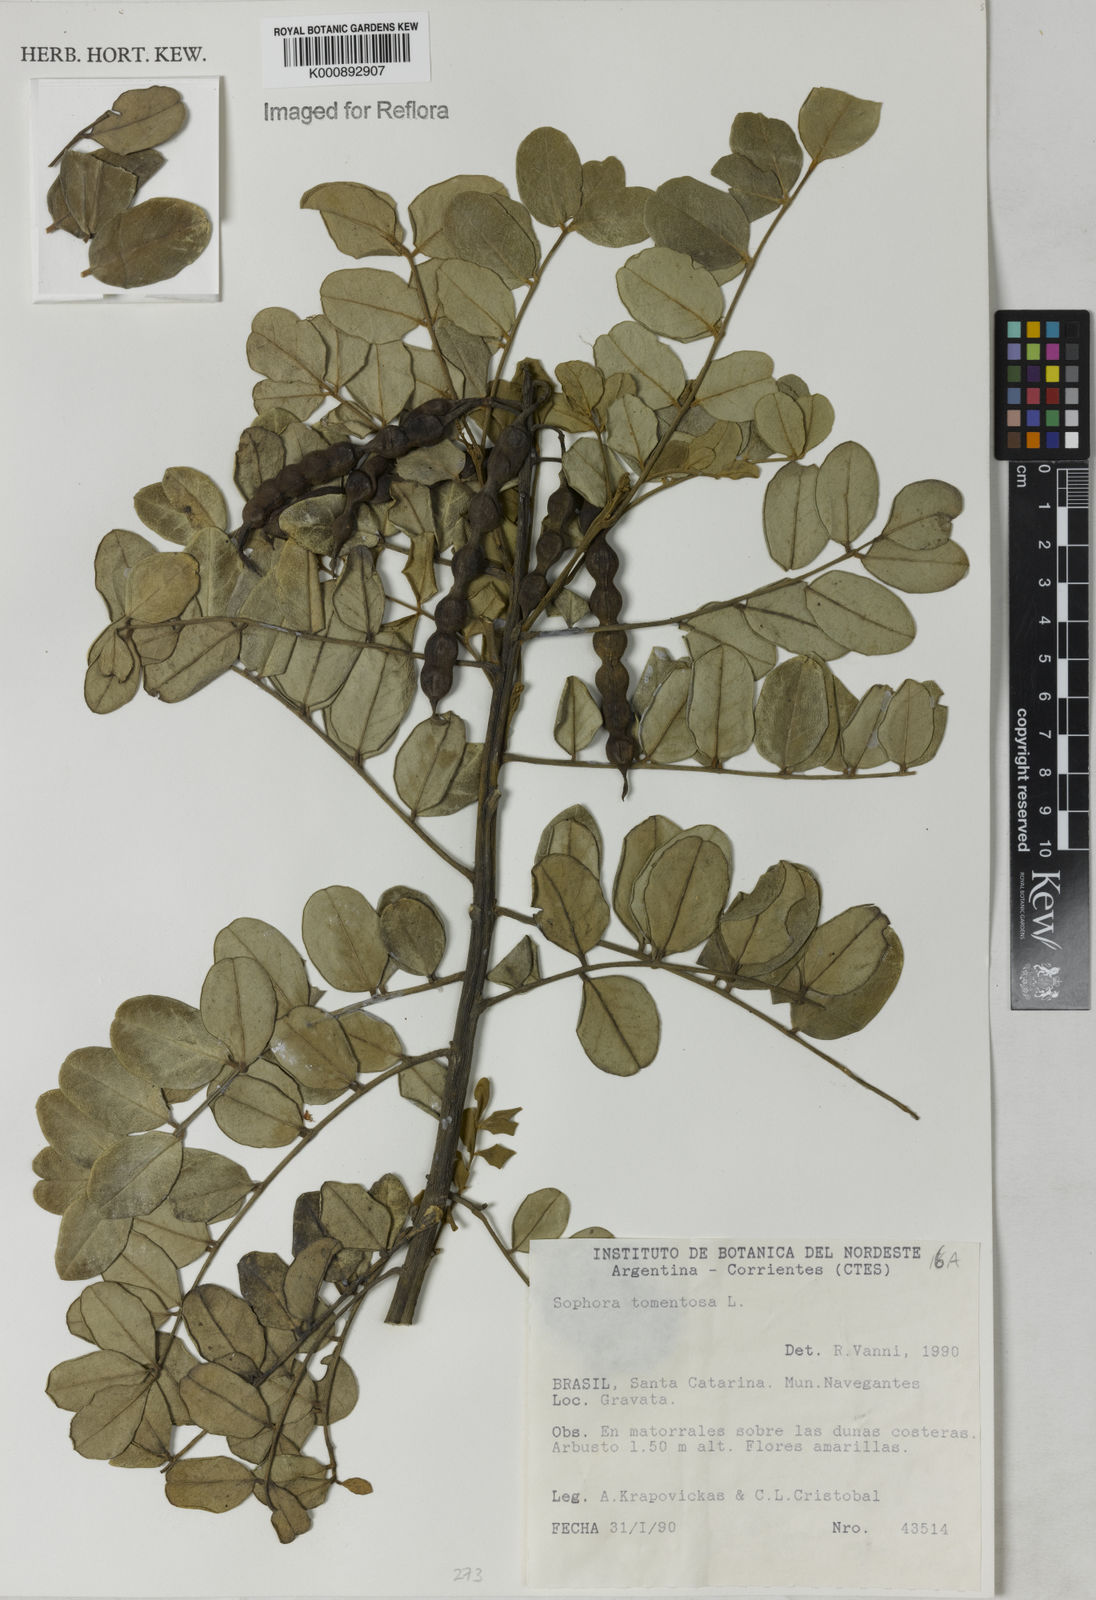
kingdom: Plantae
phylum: Tracheophyta
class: Magnoliopsida
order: Fabales
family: Fabaceae
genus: Sophora
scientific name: Sophora tomentosa
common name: Yellow necklacepod
